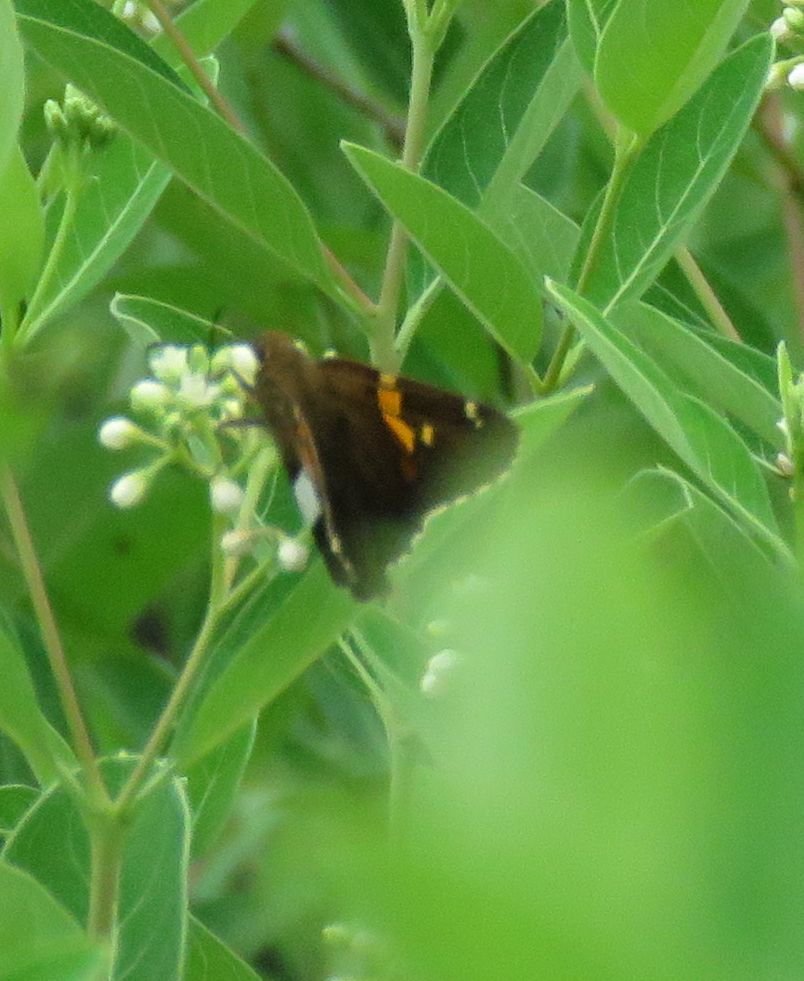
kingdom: Animalia
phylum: Arthropoda
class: Insecta
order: Lepidoptera
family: Hesperiidae
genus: Epargyreus
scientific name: Epargyreus clarus
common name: Silver-spotted Skipper
